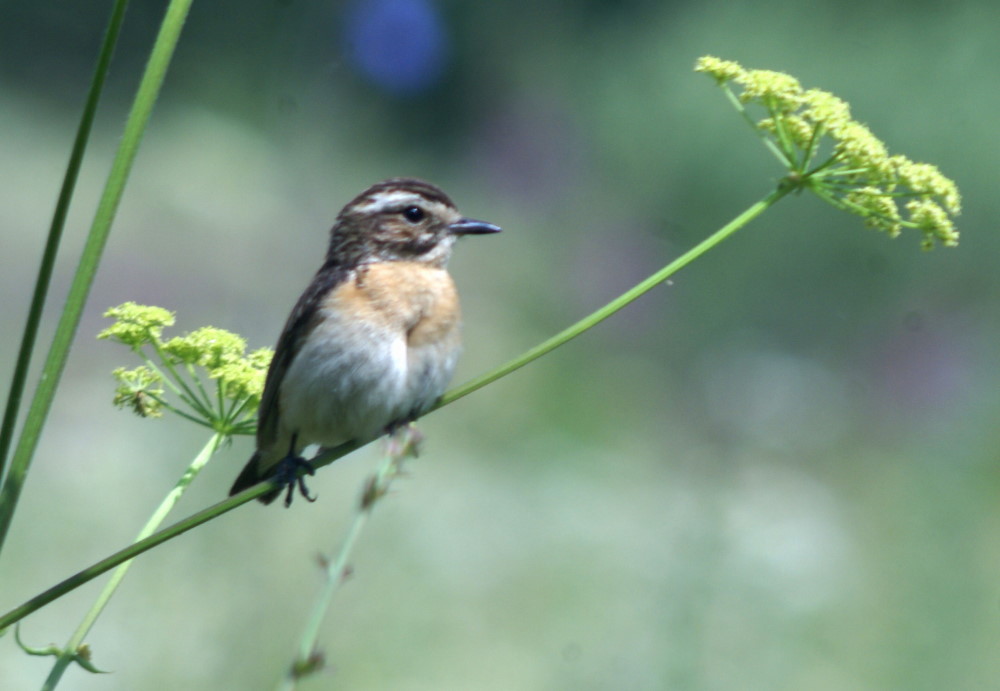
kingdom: Animalia
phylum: Chordata
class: Aves
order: Passeriformes
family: Muscicapidae
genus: Saxicola
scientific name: Saxicola rubetra
